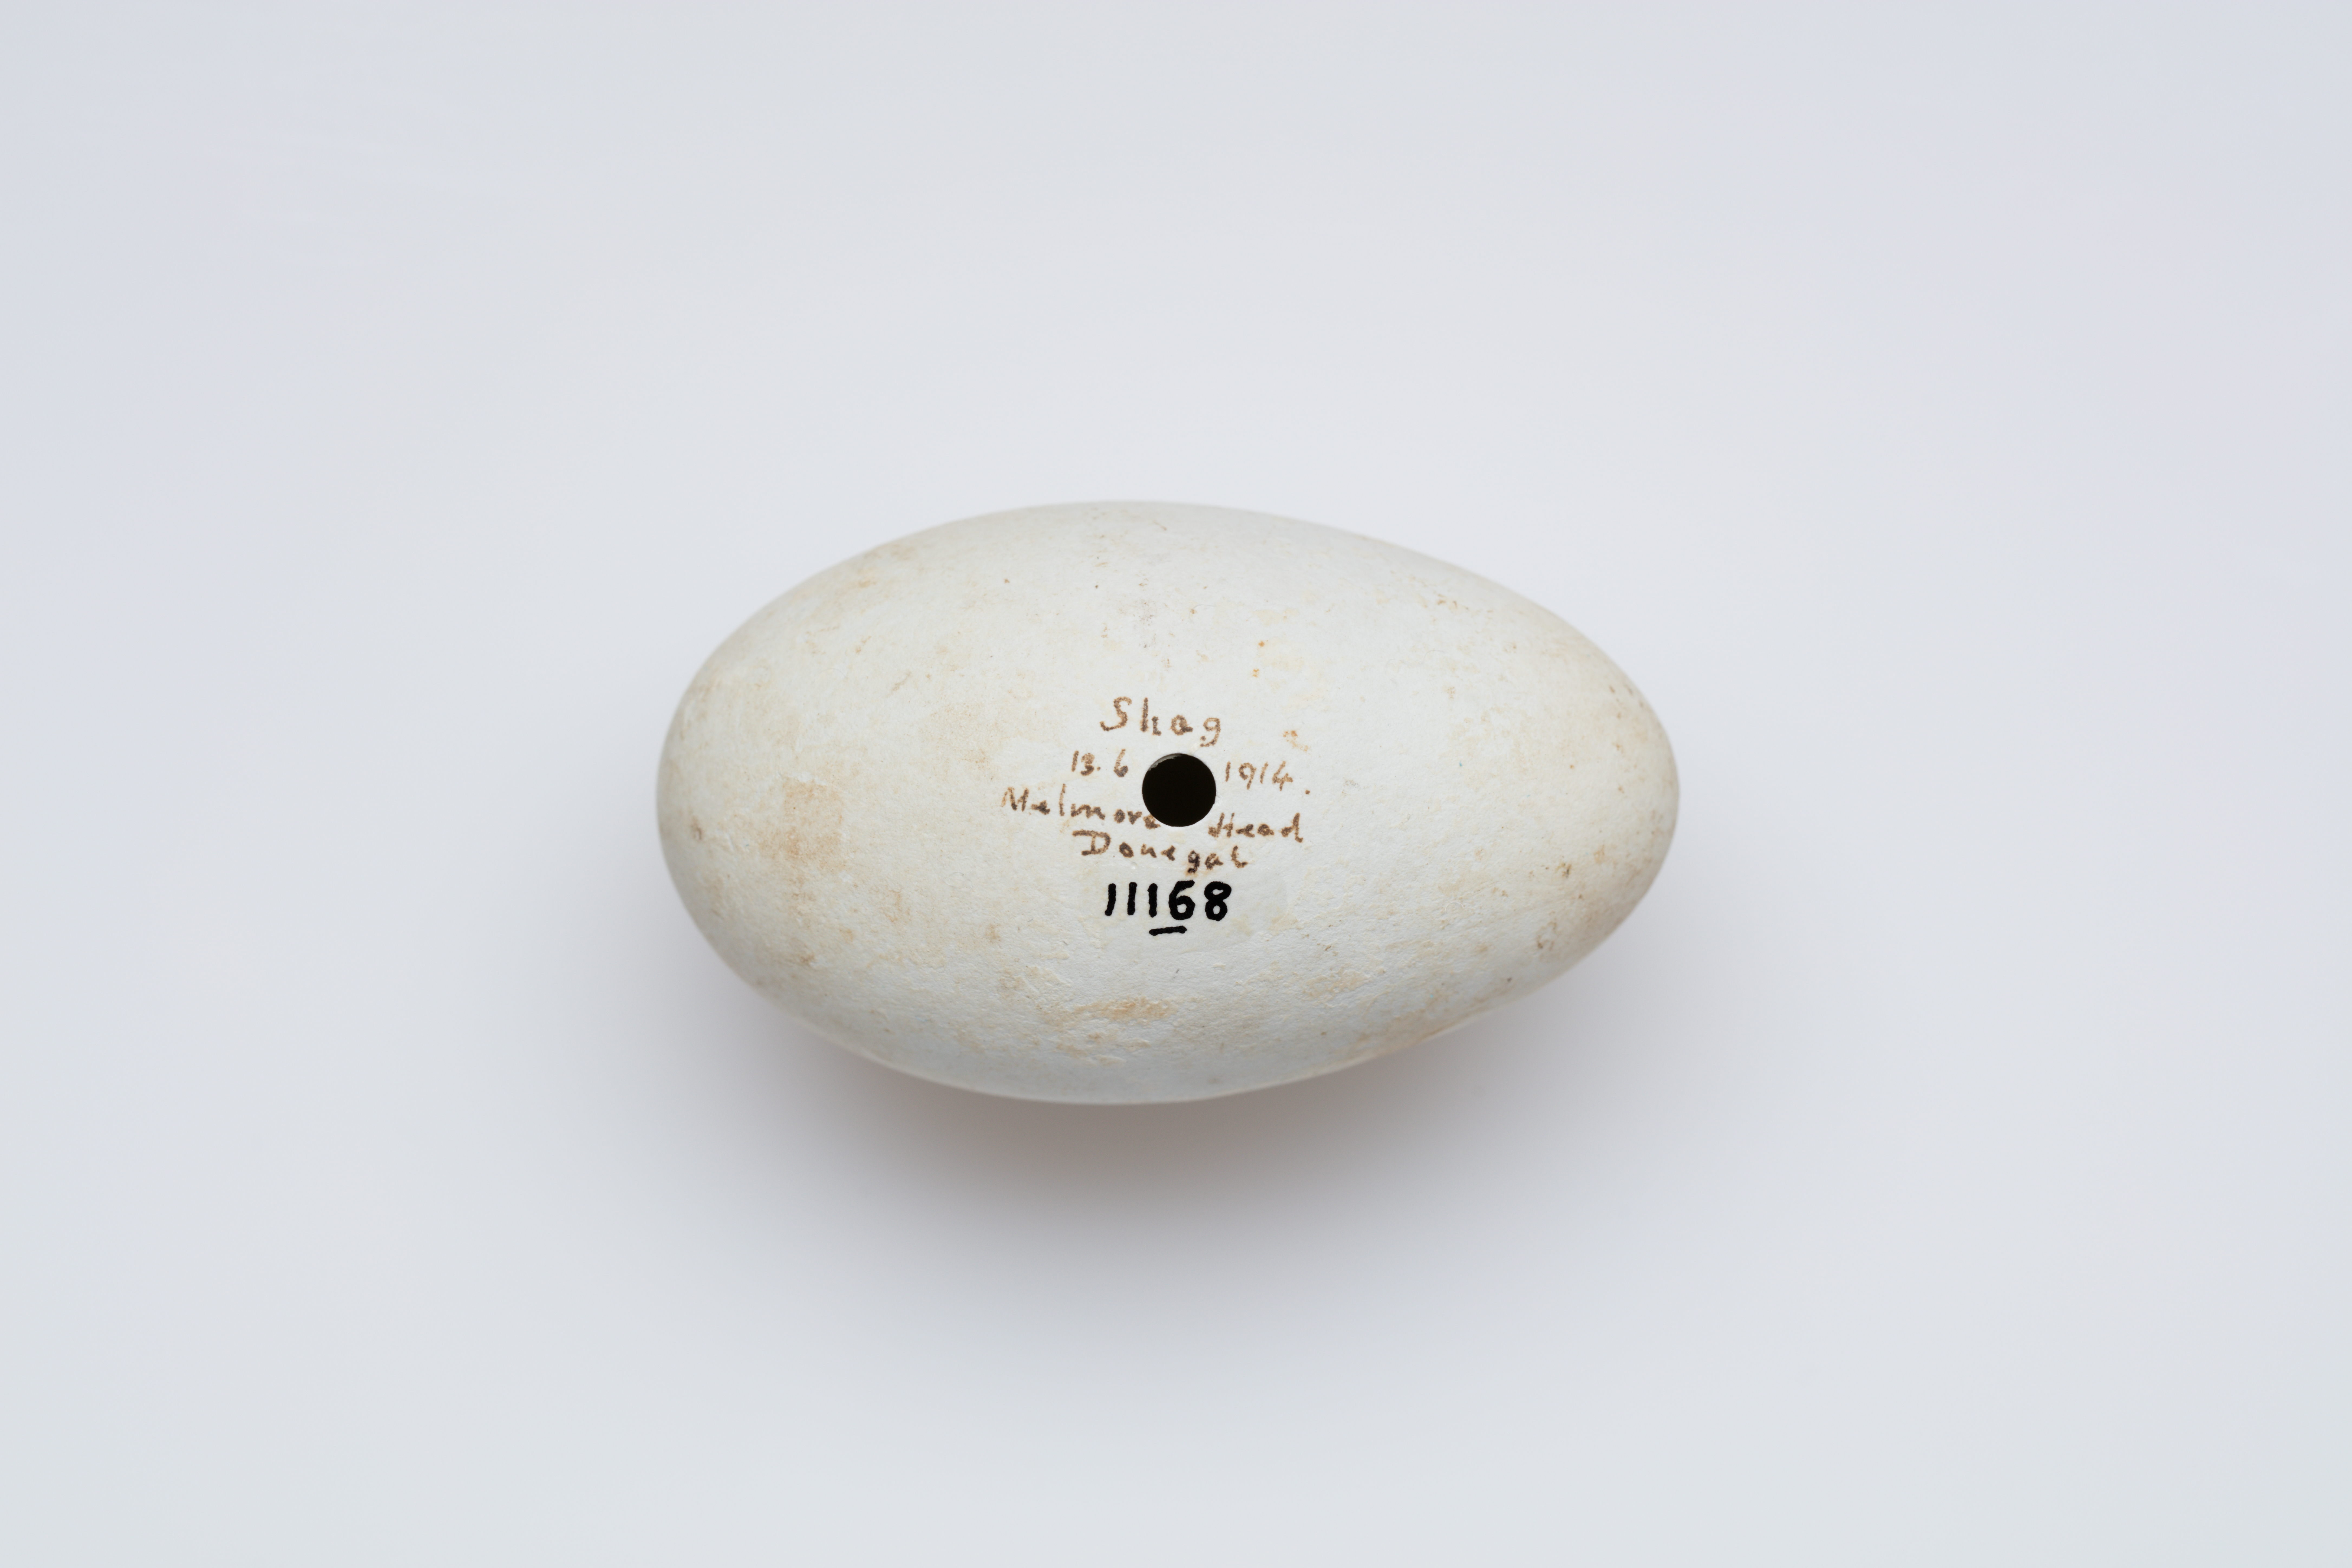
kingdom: Animalia
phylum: Chordata
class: Aves
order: Suliformes
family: Phalacrocoracidae
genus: Phalacrocorax
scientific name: Phalacrocorax aristotelis
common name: European shag
